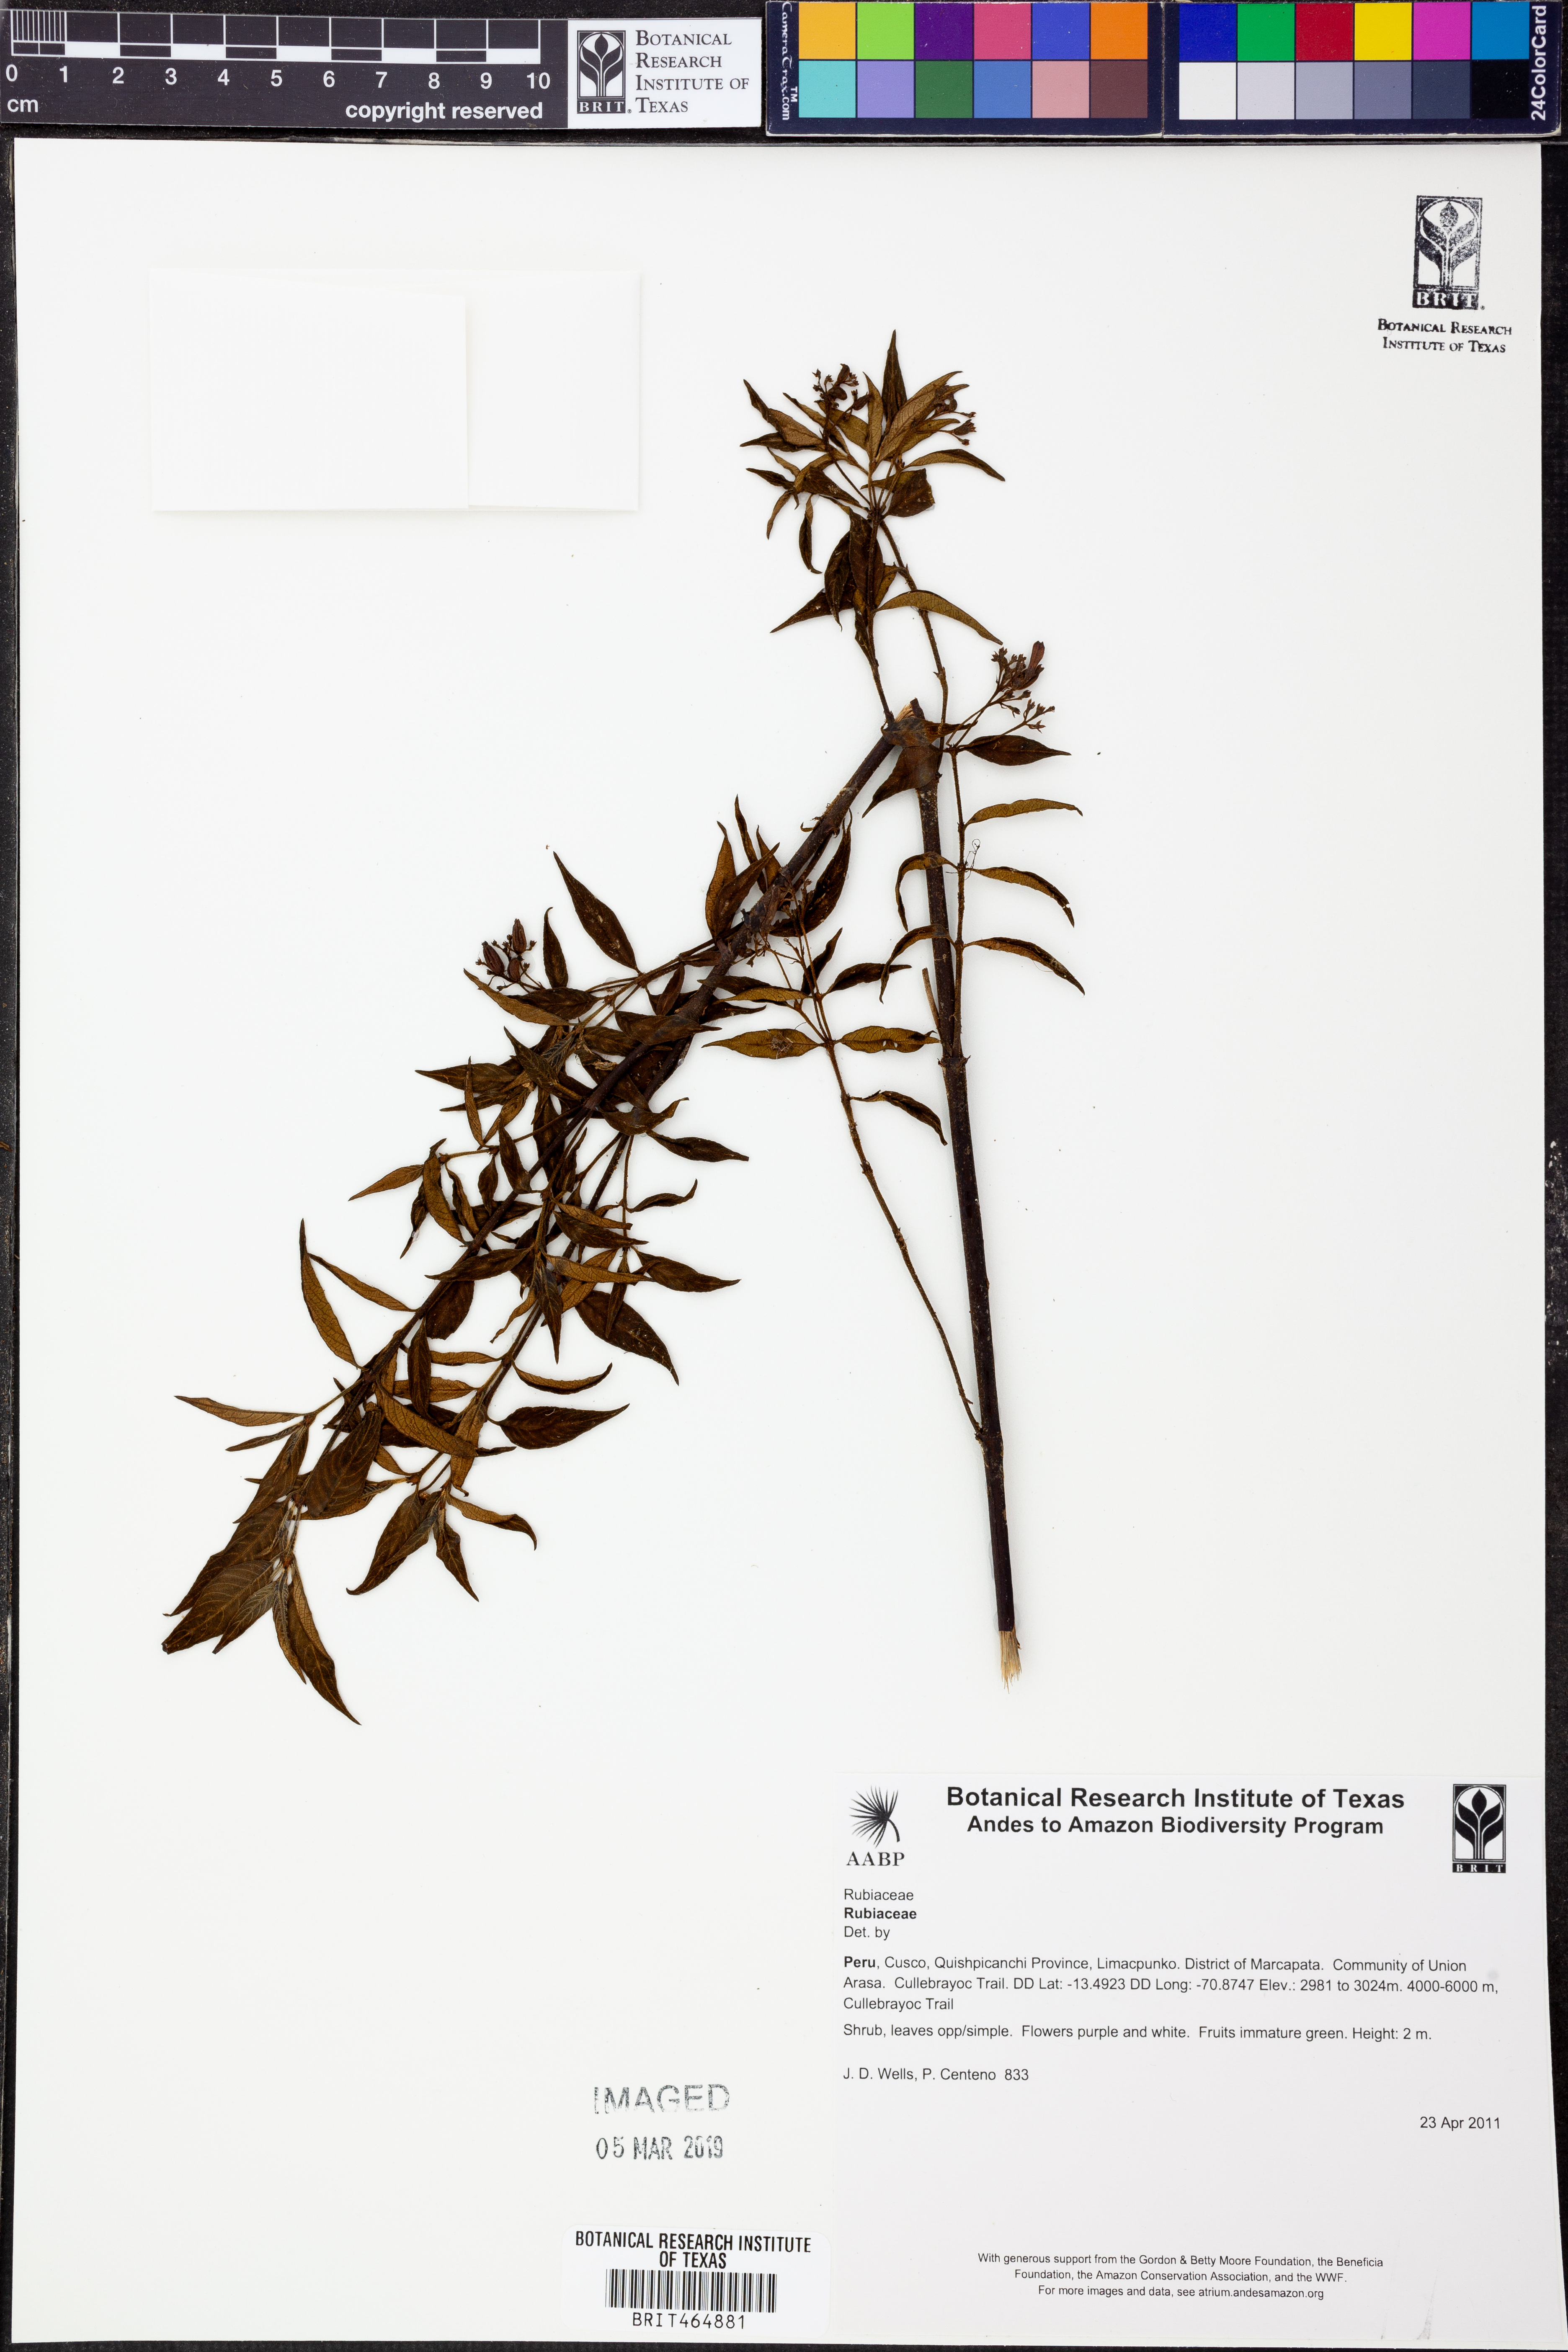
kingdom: Plantae
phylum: Tracheophyta
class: Magnoliopsida
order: Gentianales
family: Rubiaceae
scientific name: Rubiaceae
